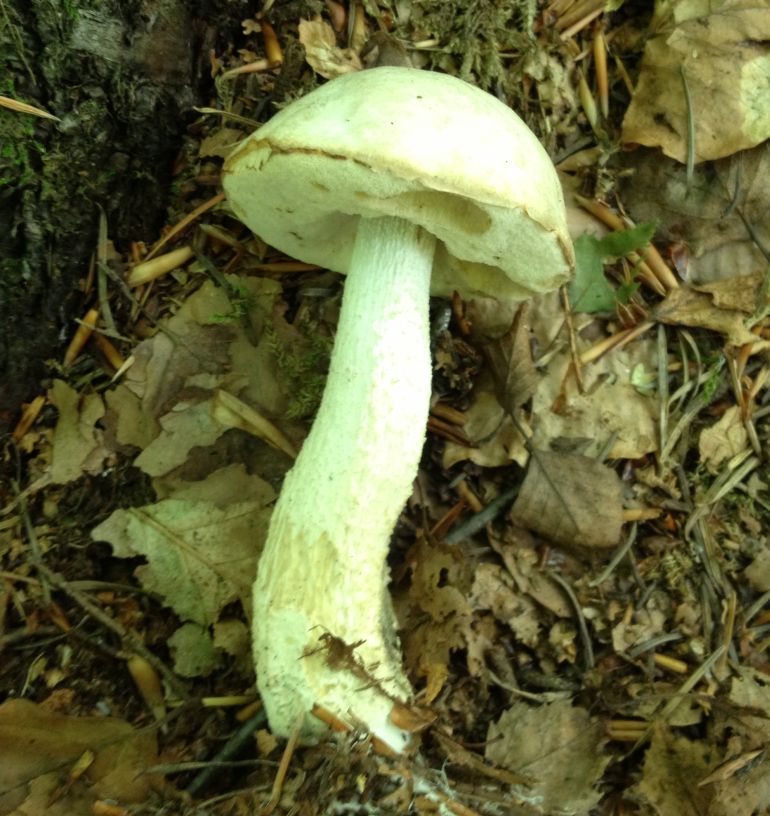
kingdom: Fungi
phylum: Basidiomycota
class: Agaricomycetes
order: Boletales
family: Boletaceae
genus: Leccinum
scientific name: Leccinum scabrum
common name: hvid skælrørhat
